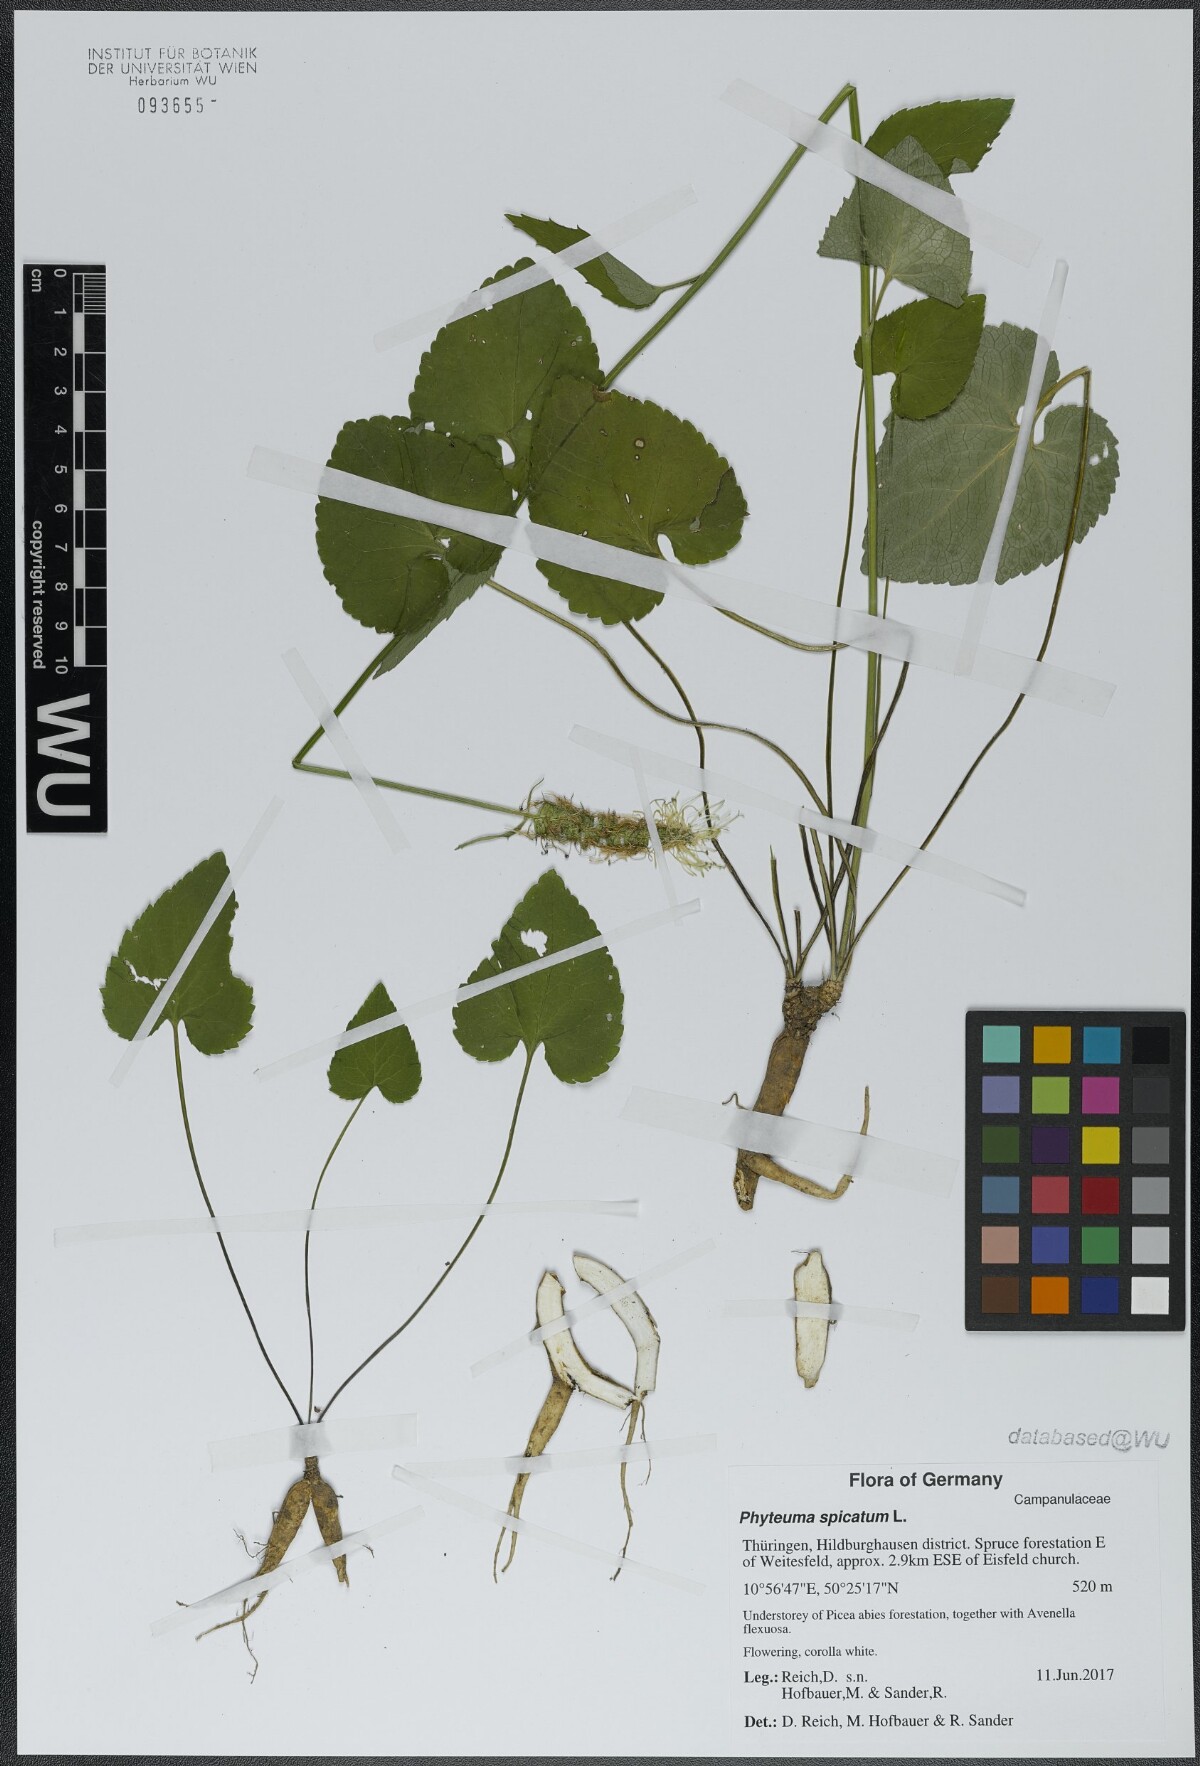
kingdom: Plantae
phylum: Tracheophyta
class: Magnoliopsida
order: Asterales
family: Campanulaceae
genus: Phyteuma
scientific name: Phyteuma spicatum
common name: Spiked rampion
